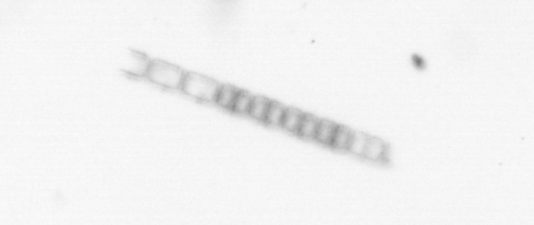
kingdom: Chromista
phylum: Ochrophyta
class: Bacillariophyceae
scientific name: Bacillariophyceae
